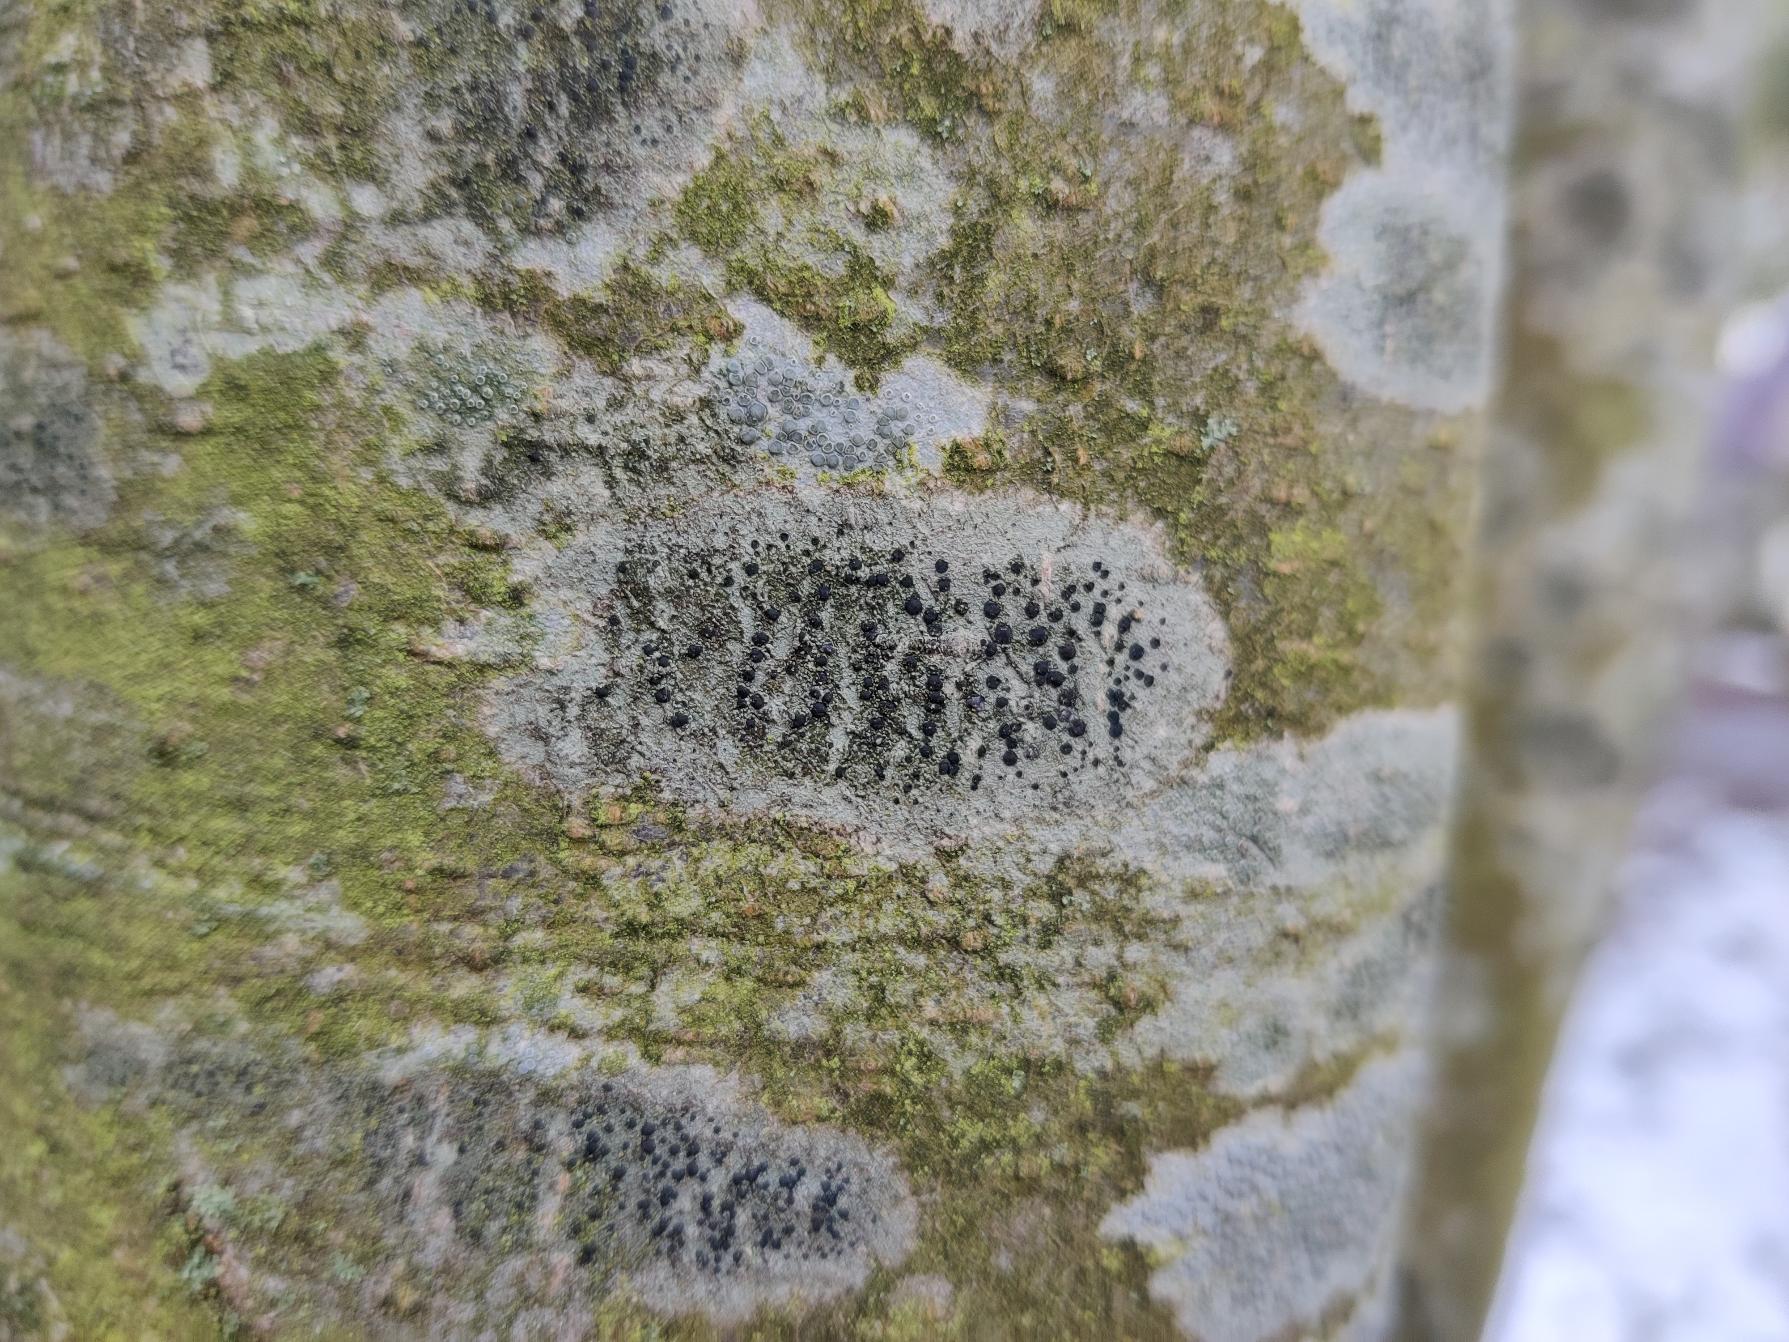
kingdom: Fungi
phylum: Ascomycota
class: Lecanoromycetes
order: Lecanorales
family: Lecanoraceae
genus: Lecidella
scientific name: Lecidella elaeochroma
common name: Grågrøn skivelav
